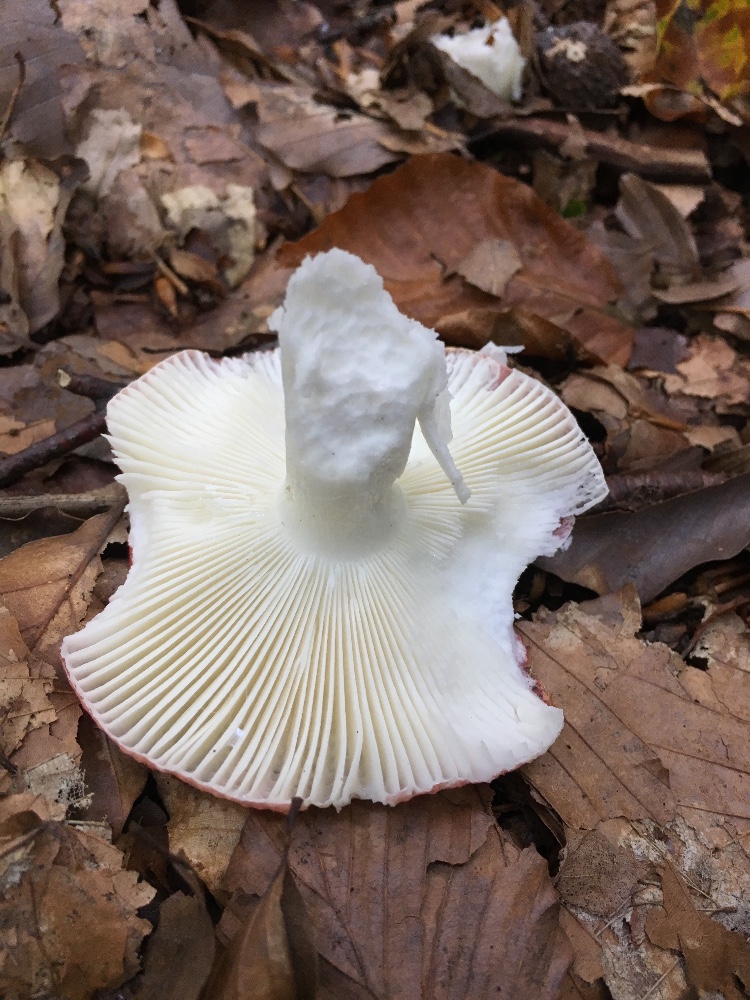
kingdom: Fungi
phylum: Basidiomycota
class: Agaricomycetes
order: Russulales
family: Russulaceae
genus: Russula
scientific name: Russula silvestris
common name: mellemstor gift-skørhat
